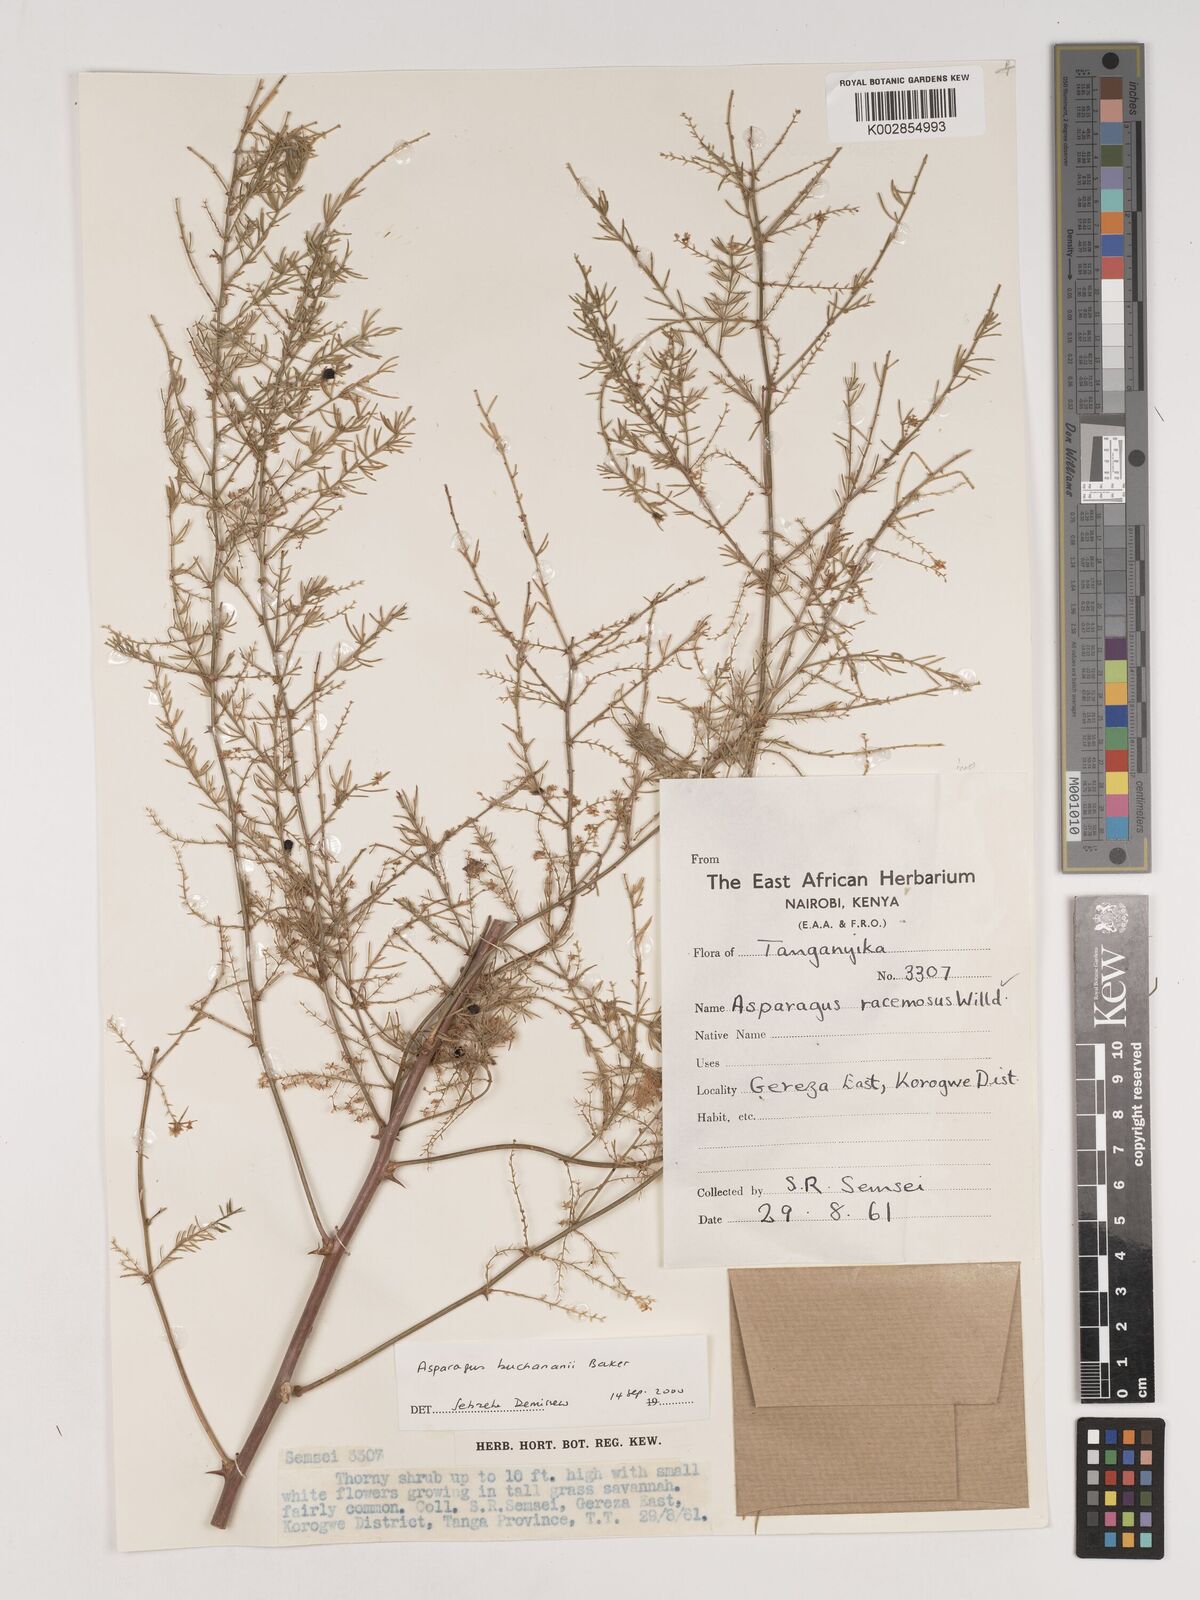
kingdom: Plantae
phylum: Tracheophyta
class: Liliopsida
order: Asparagales
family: Asparagaceae
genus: Asparagus
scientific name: Asparagus buchananii
